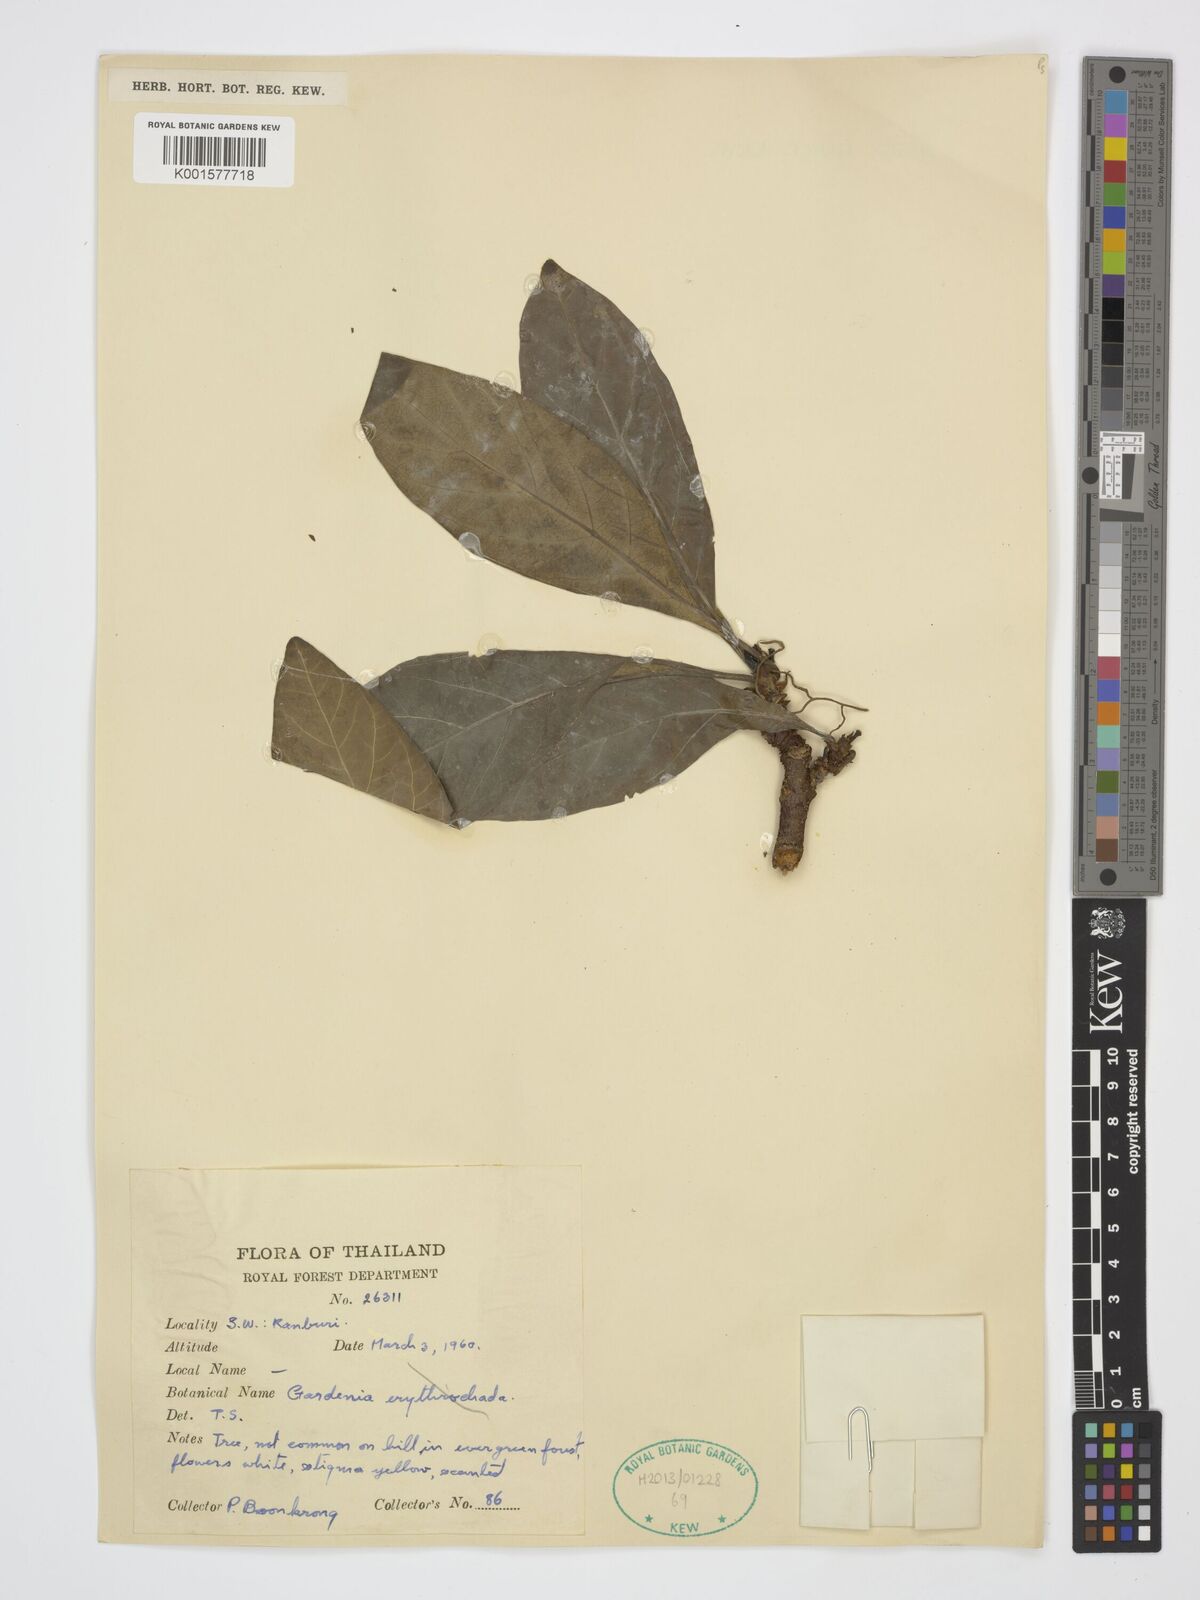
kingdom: Plantae
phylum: Tracheophyta
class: Magnoliopsida
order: Gentianales
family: Rubiaceae
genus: Dioecrescis
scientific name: Dioecrescis erythroclada
